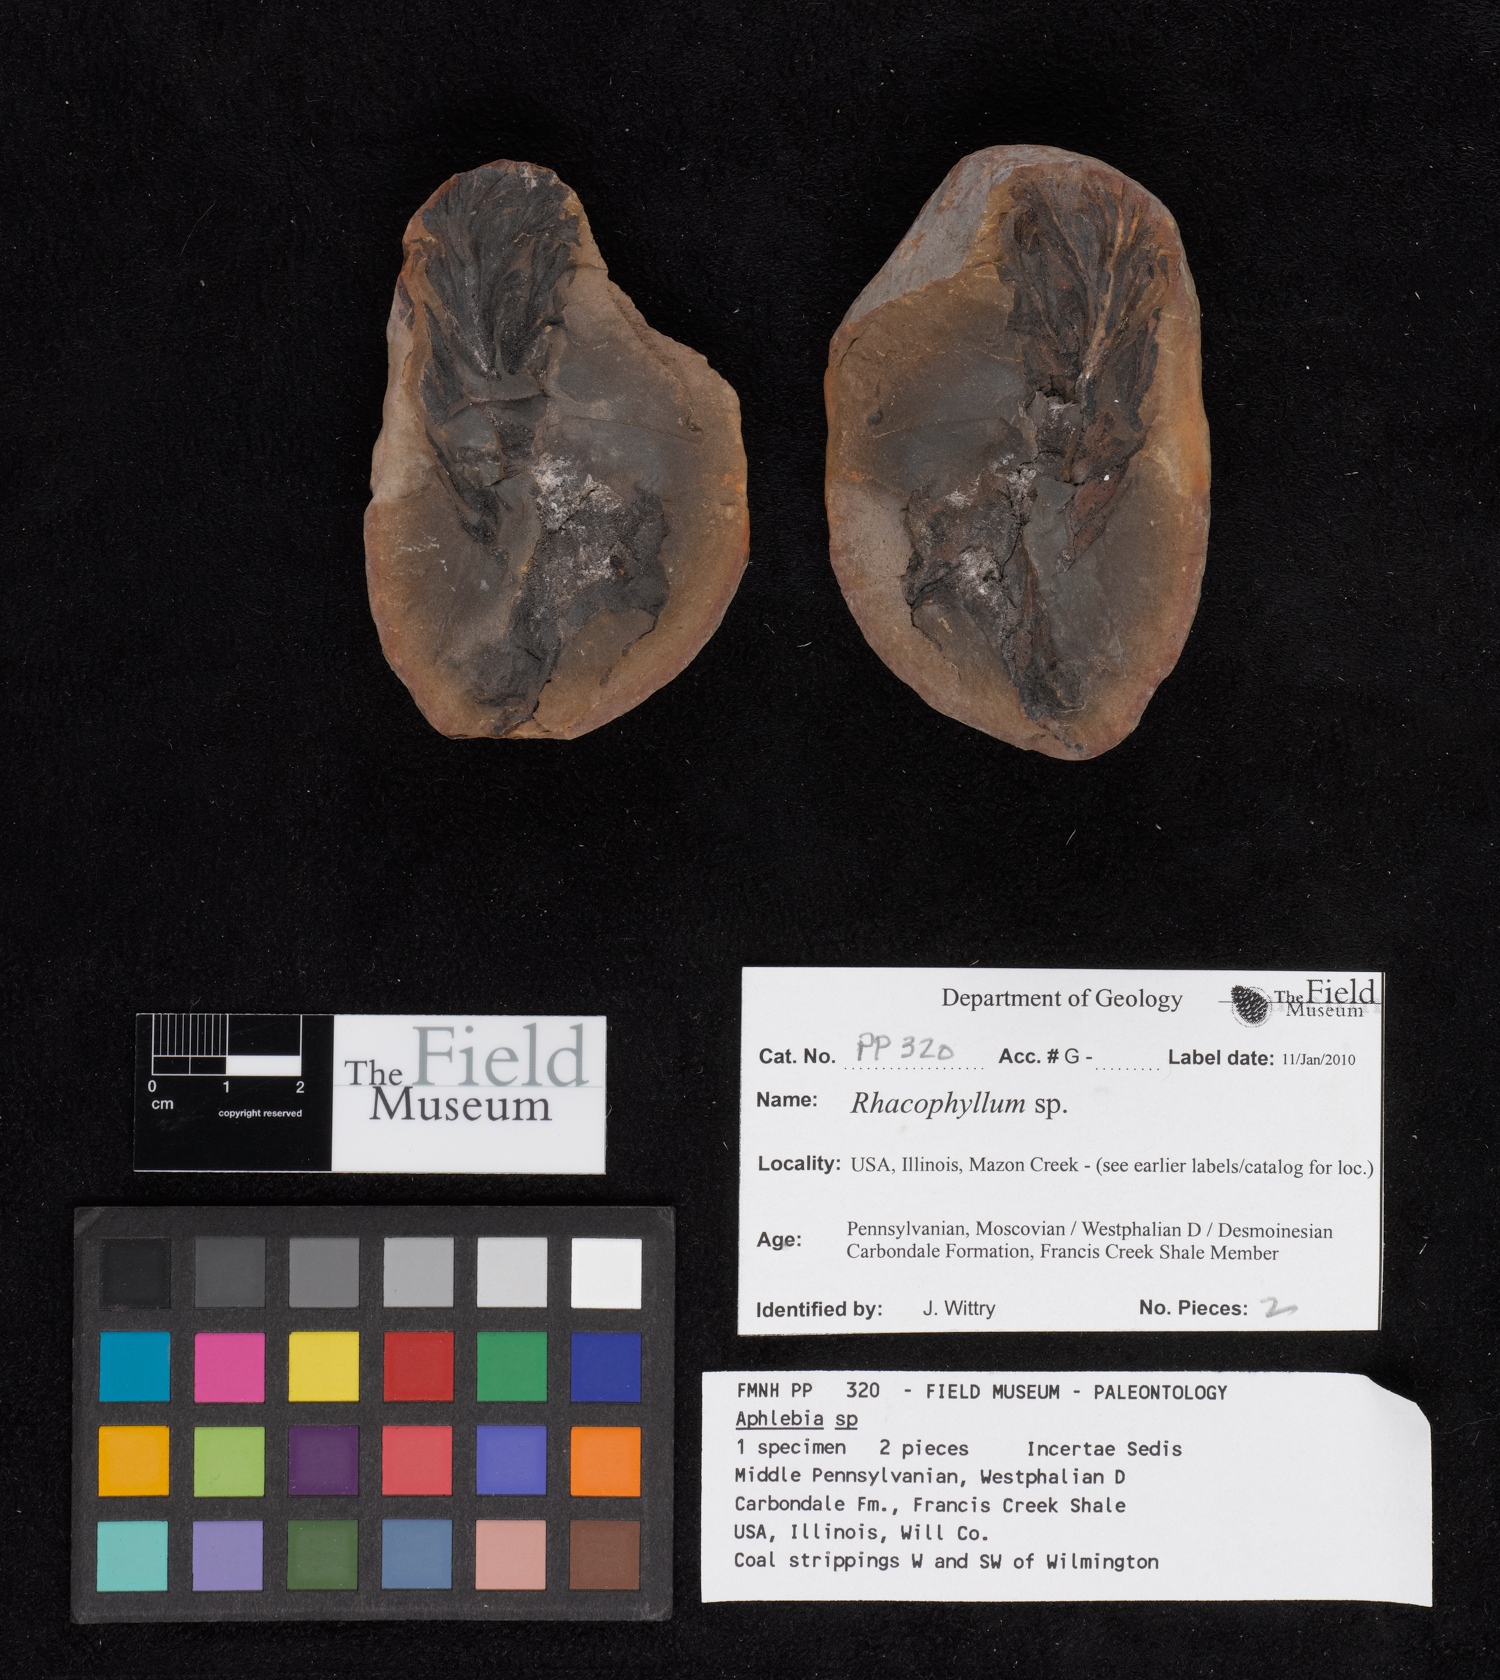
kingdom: Plantae
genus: Rhacophyllum
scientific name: Rhacophyllum
